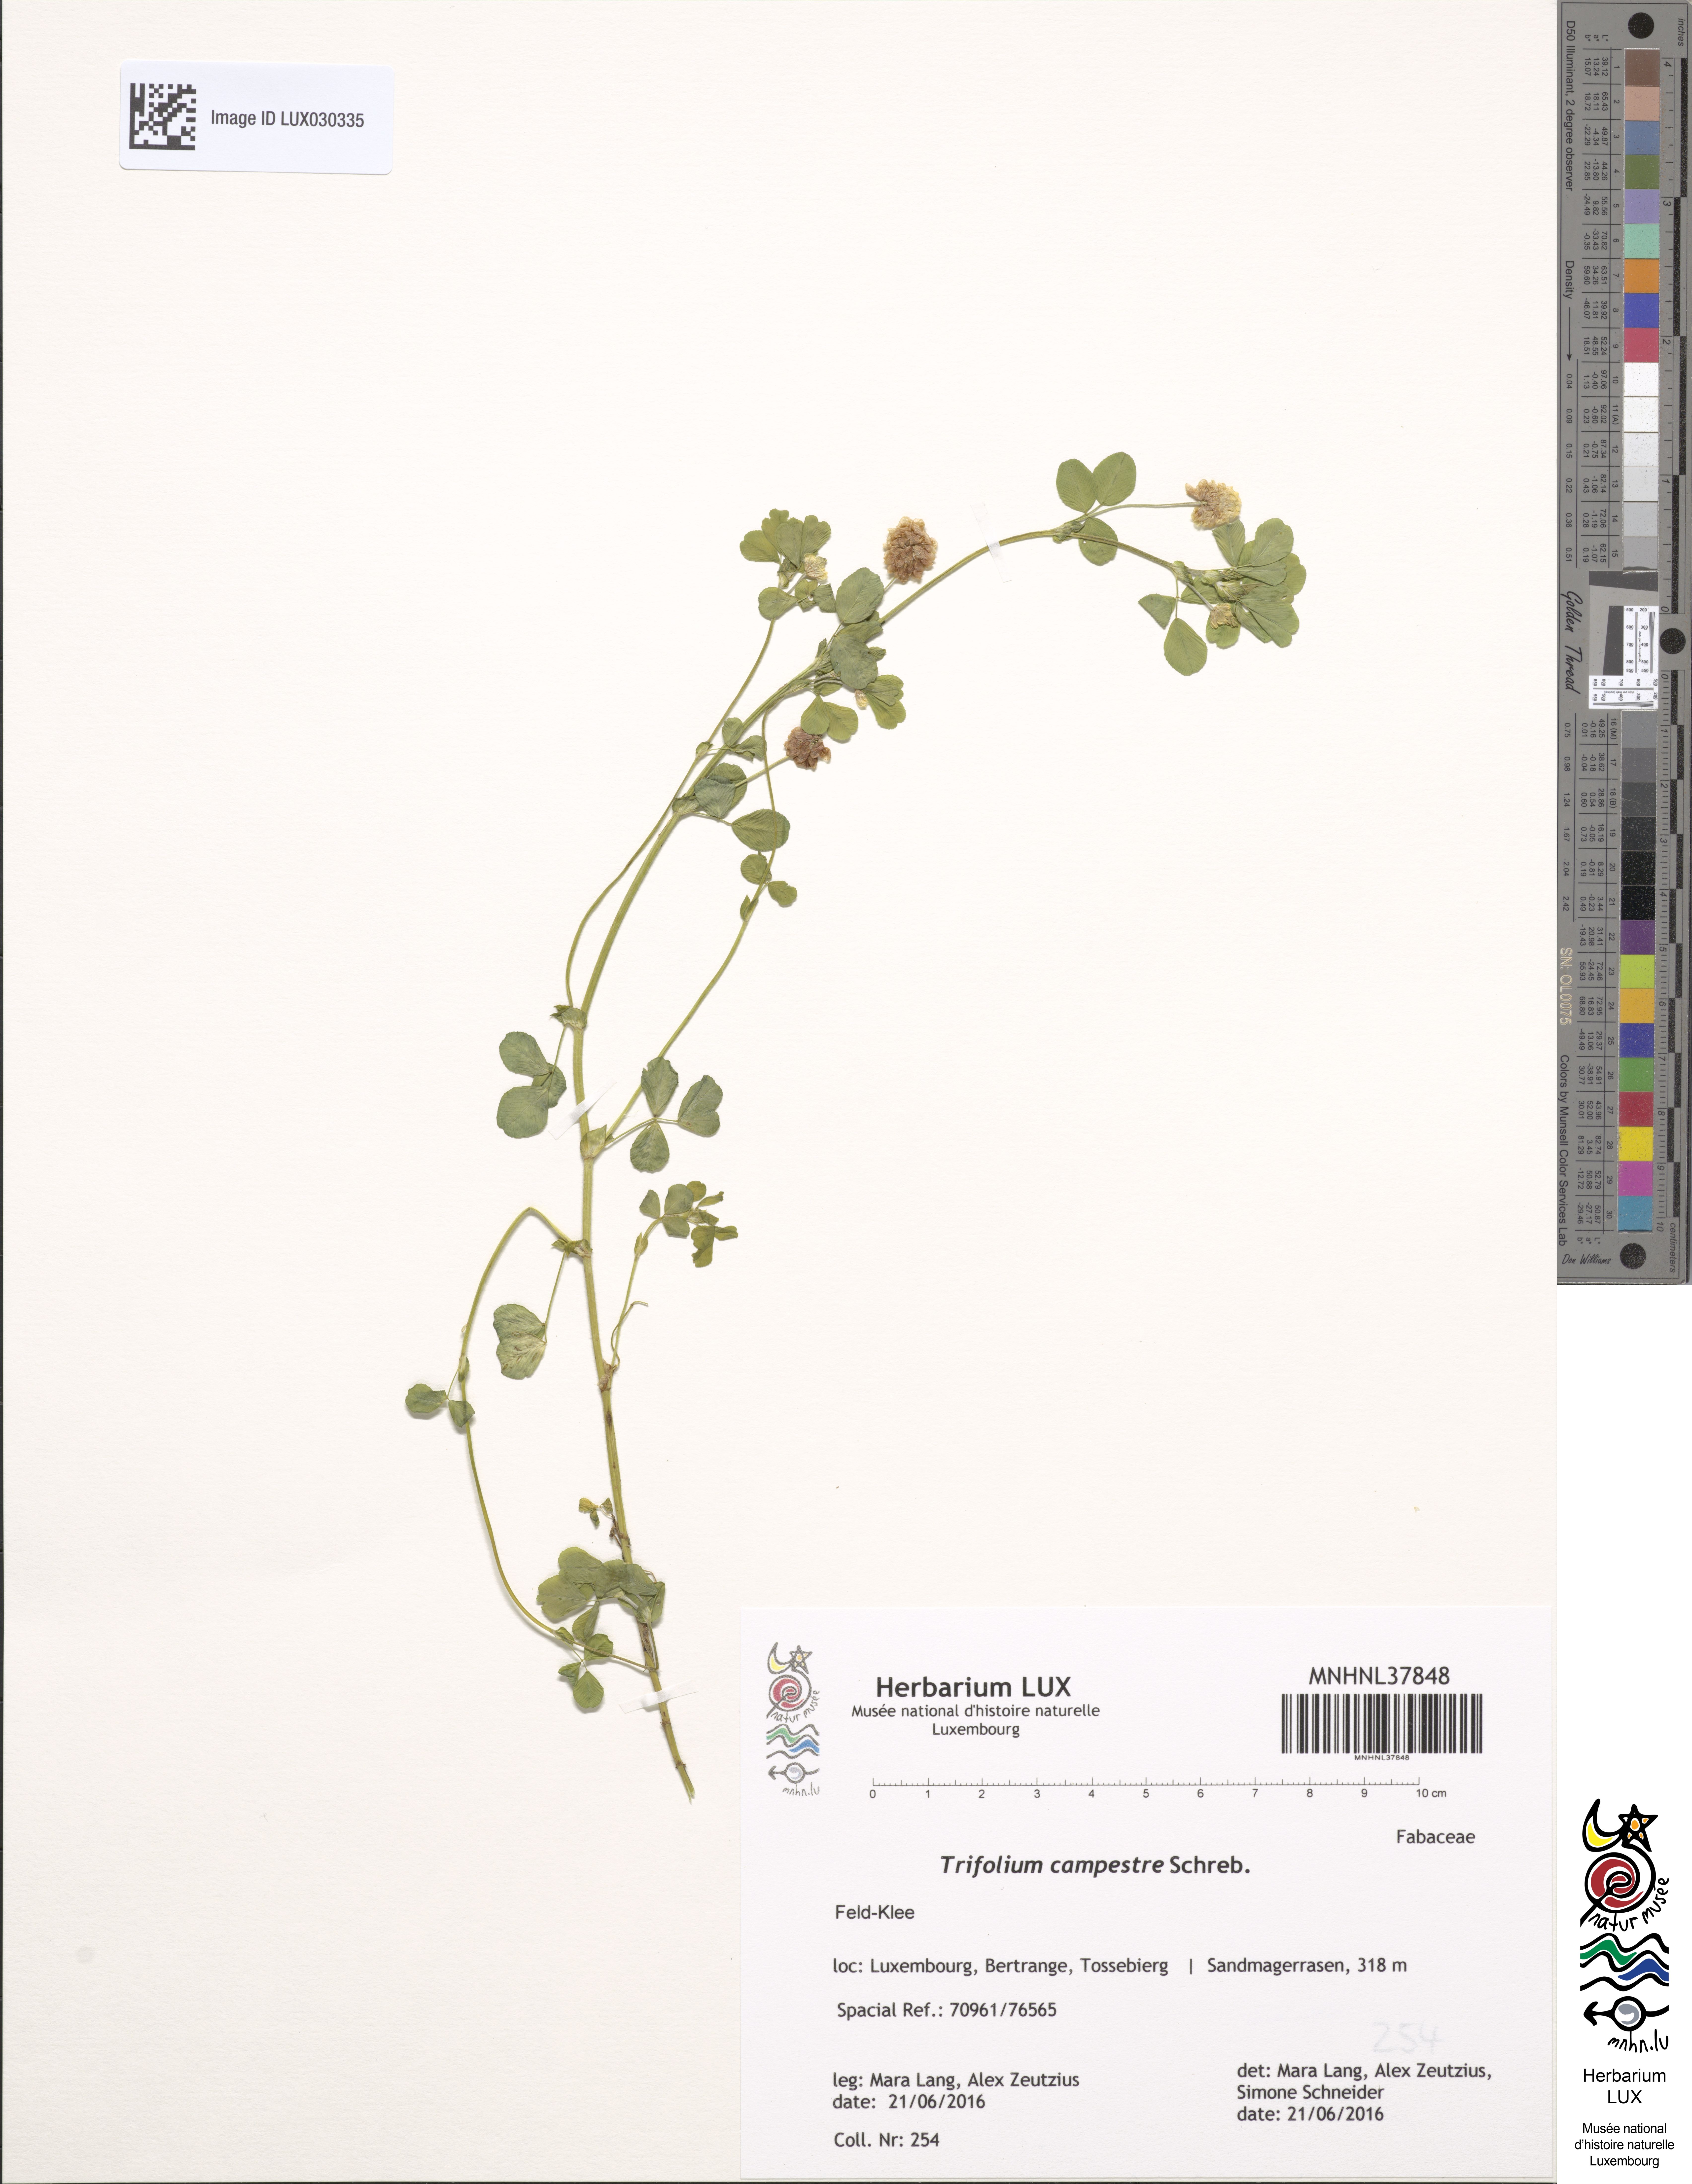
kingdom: Plantae
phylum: Tracheophyta
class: Magnoliopsida
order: Fabales
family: Fabaceae
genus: Trifolium
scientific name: Trifolium campestre
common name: Field clover
